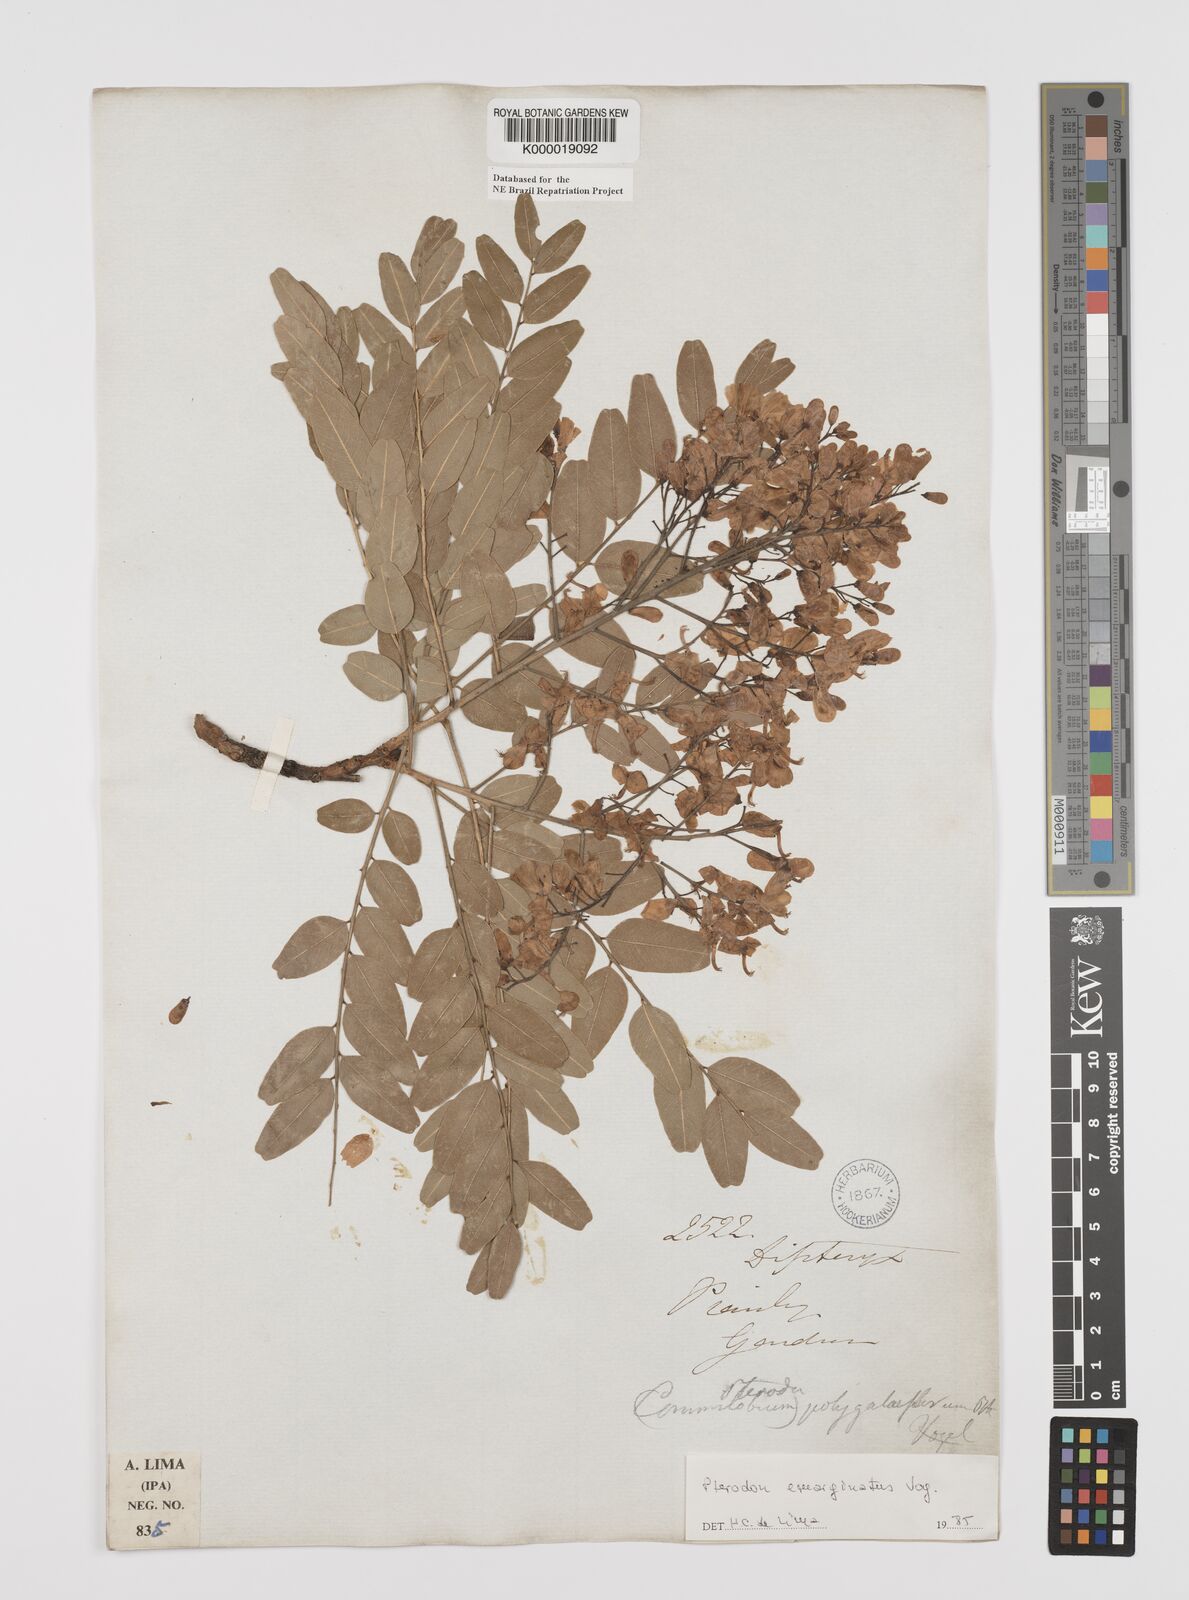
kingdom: Plantae
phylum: Tracheophyta
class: Magnoliopsida
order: Fabales
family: Fabaceae
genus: Pterodon
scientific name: Pterodon emarginatus
